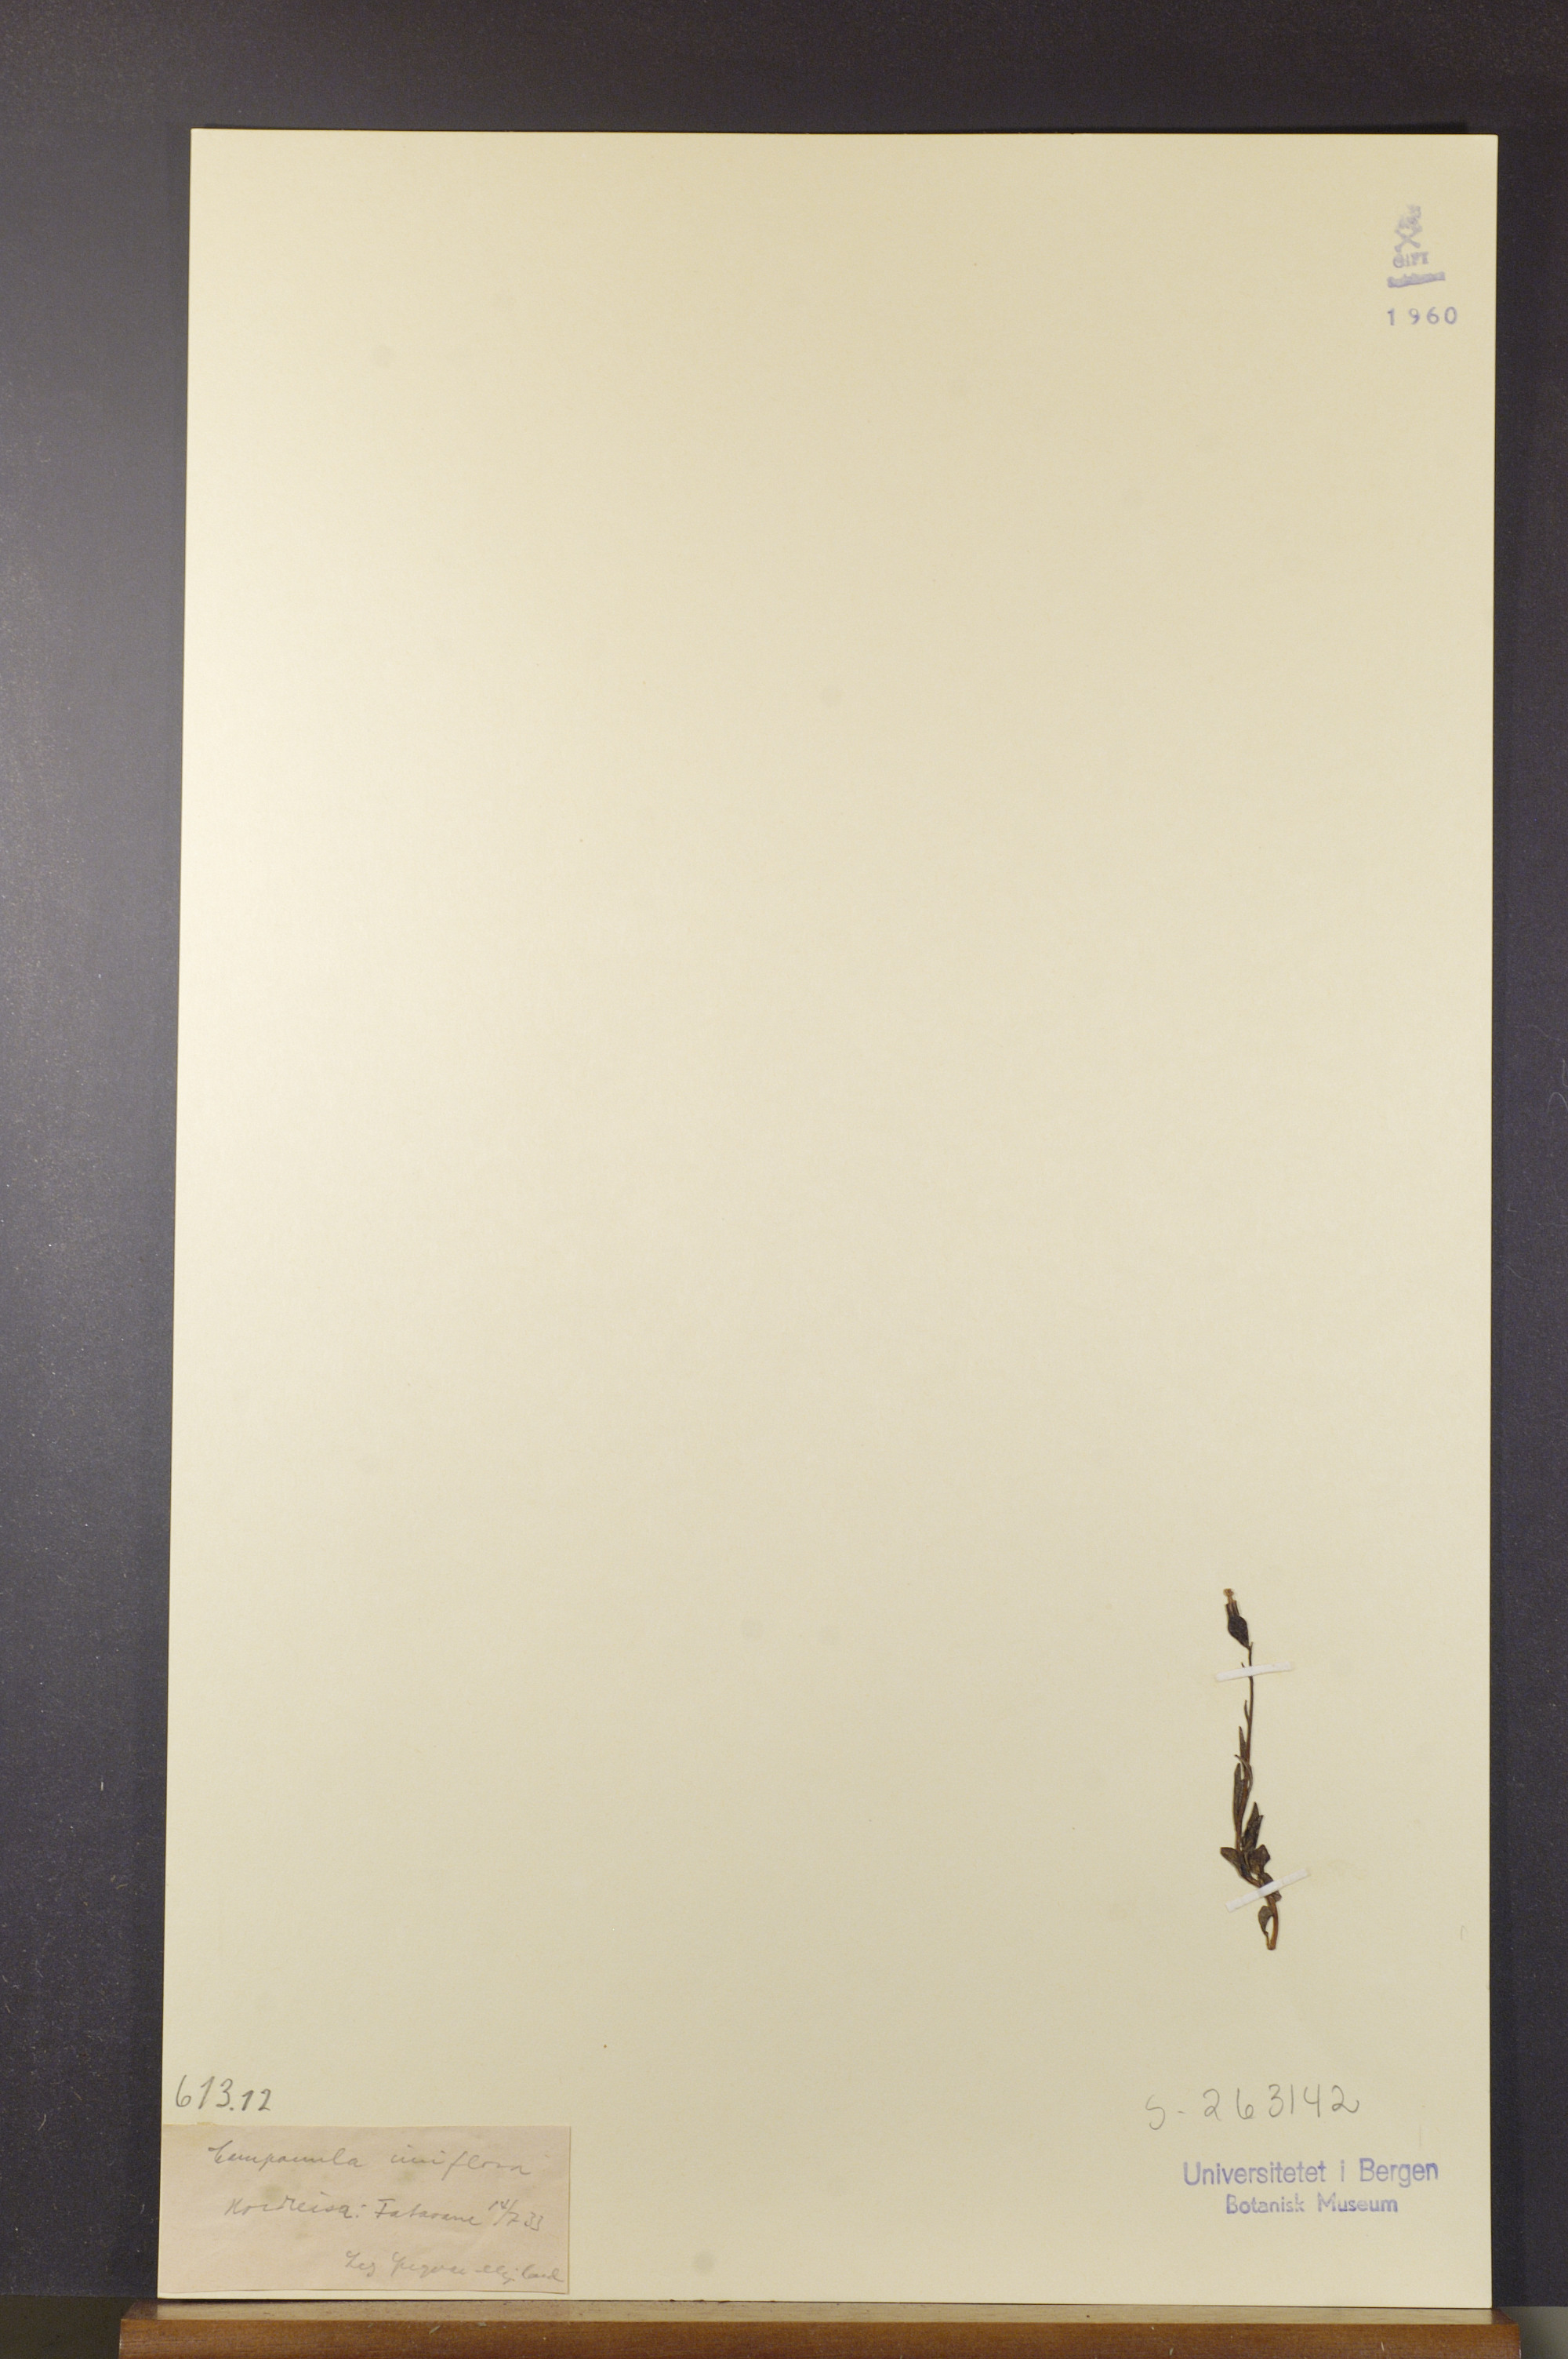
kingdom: Plantae
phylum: Tracheophyta
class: Magnoliopsida
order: Asterales
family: Campanulaceae
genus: Melanocalyx
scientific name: Melanocalyx uniflora
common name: Alpine harebell
